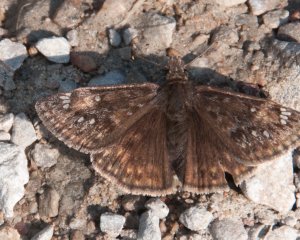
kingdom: Animalia
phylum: Arthropoda
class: Insecta
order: Lepidoptera
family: Hesperiidae
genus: Gesta
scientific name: Gesta
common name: Juvenal's Duskywing
